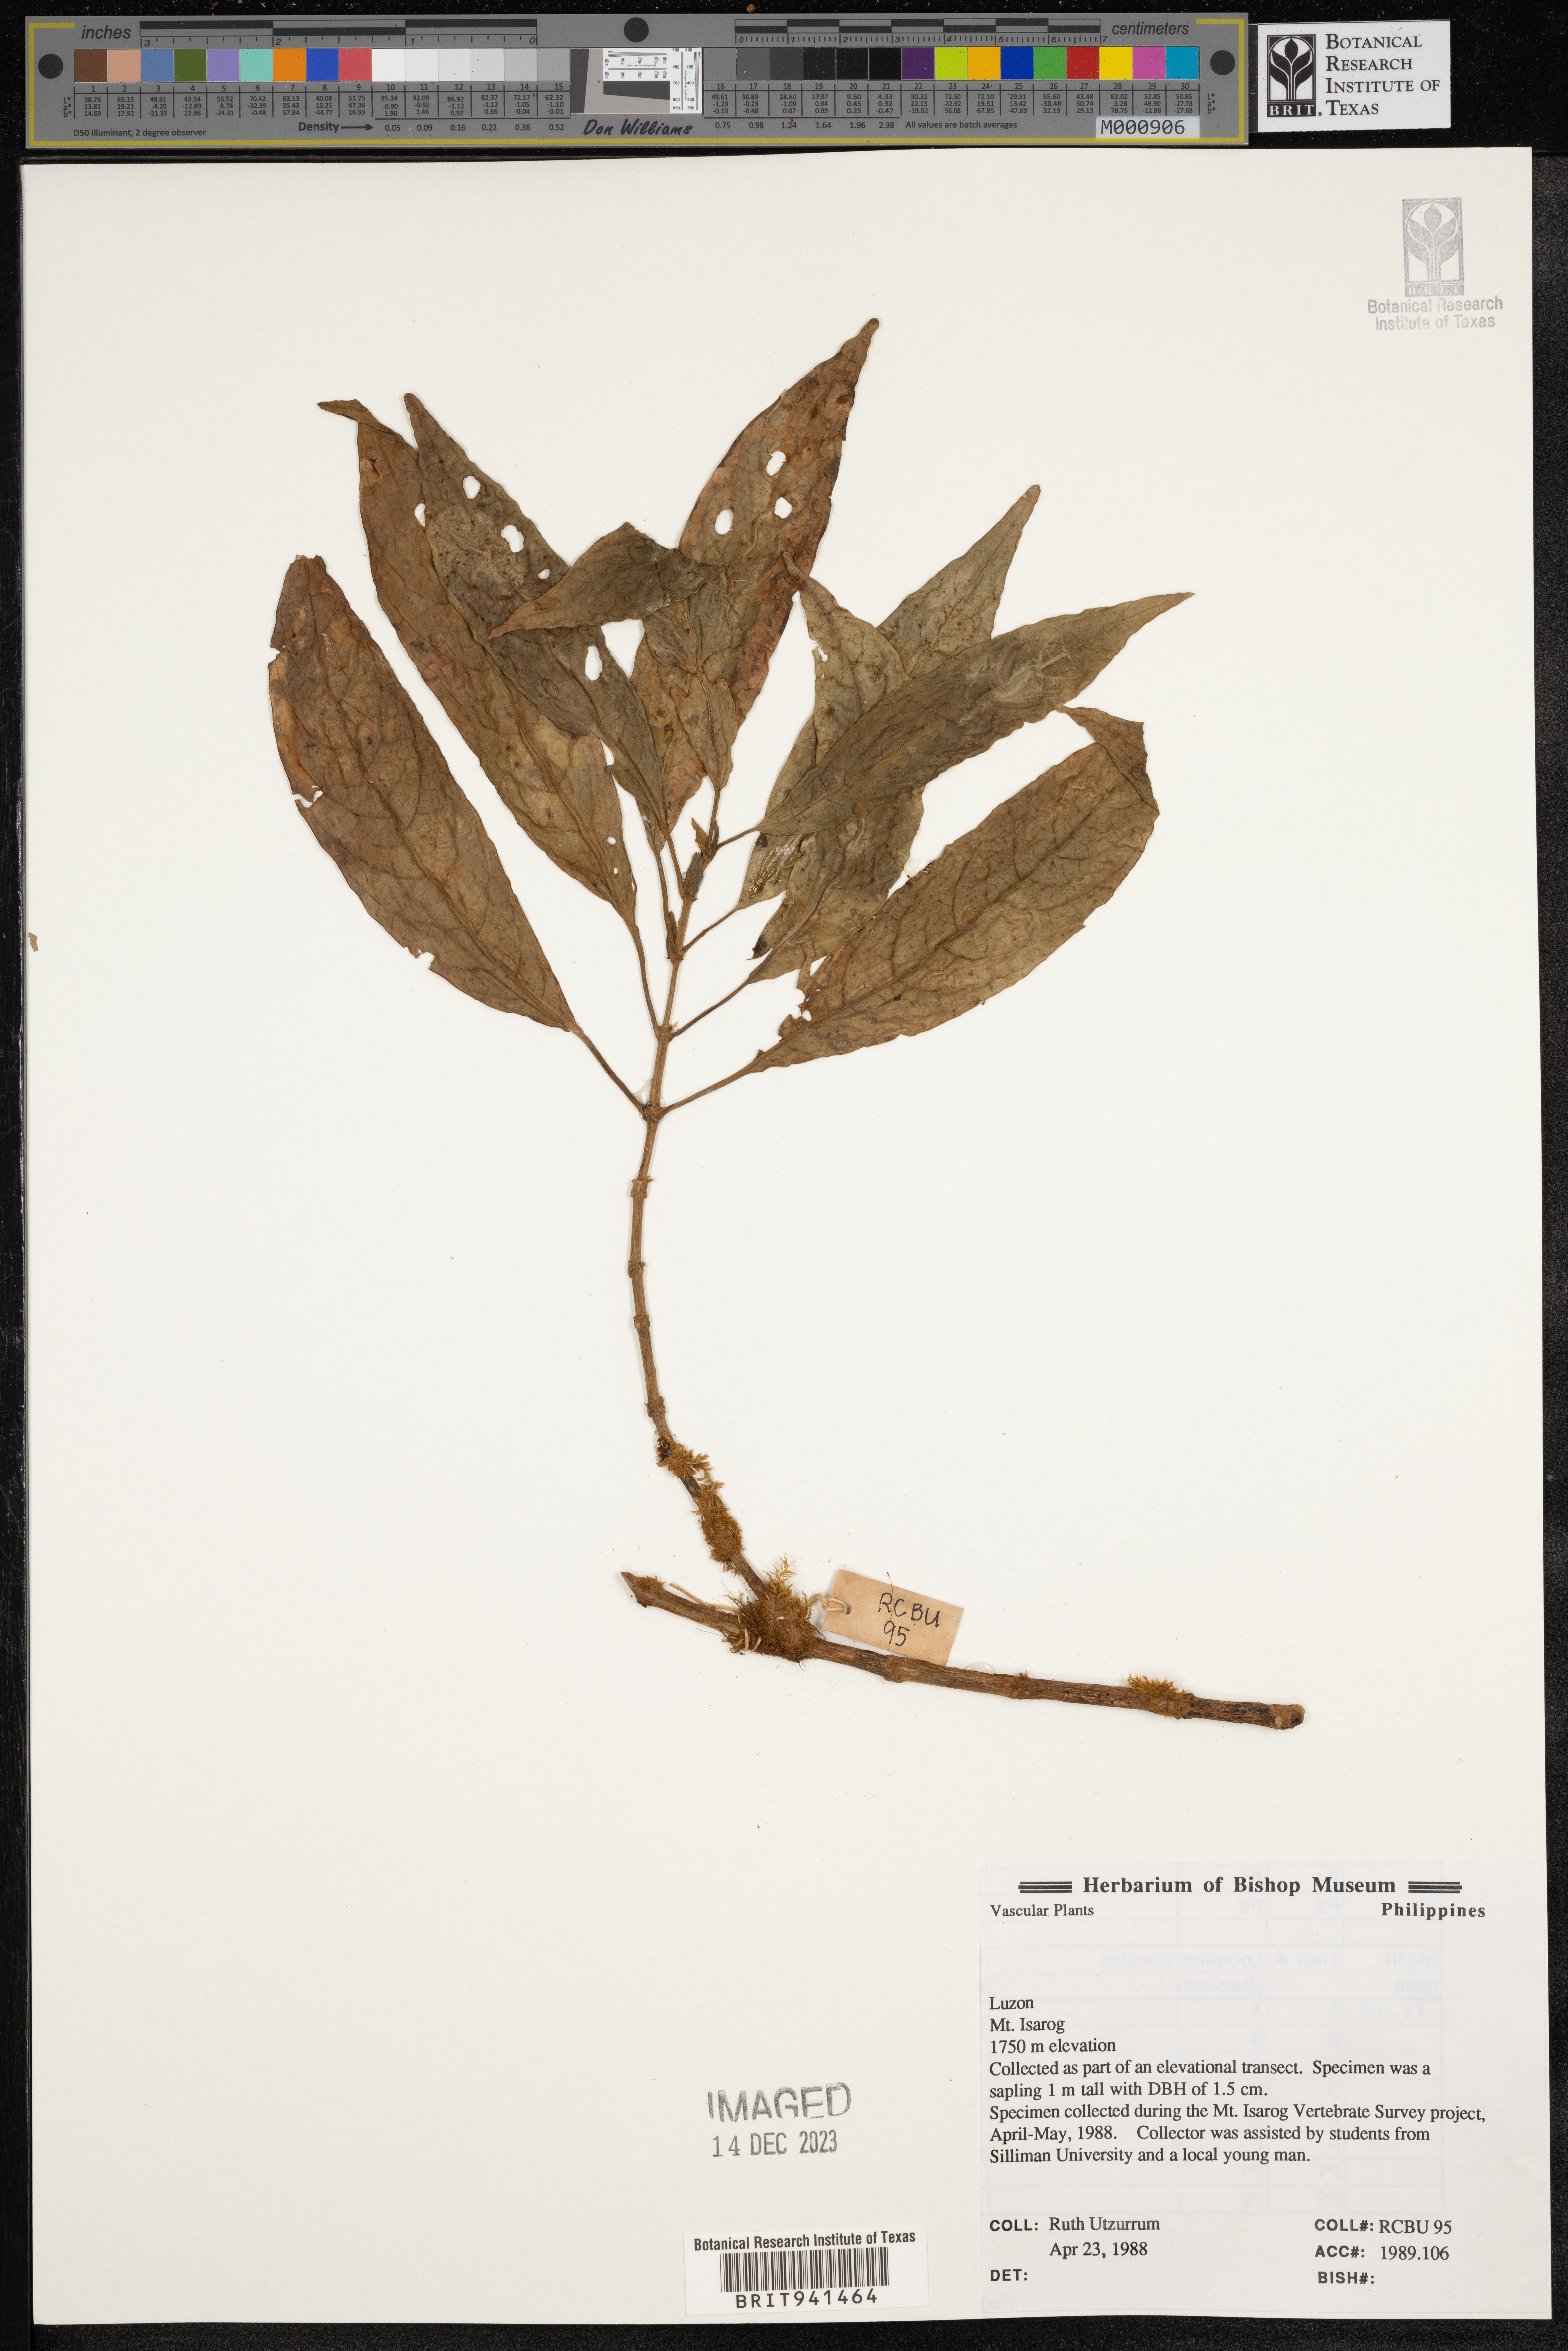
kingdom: Plantae
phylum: Tracheophyta
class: Magnoliopsida
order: Gentianales
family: Rubiaceae
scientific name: Rubiaceae
